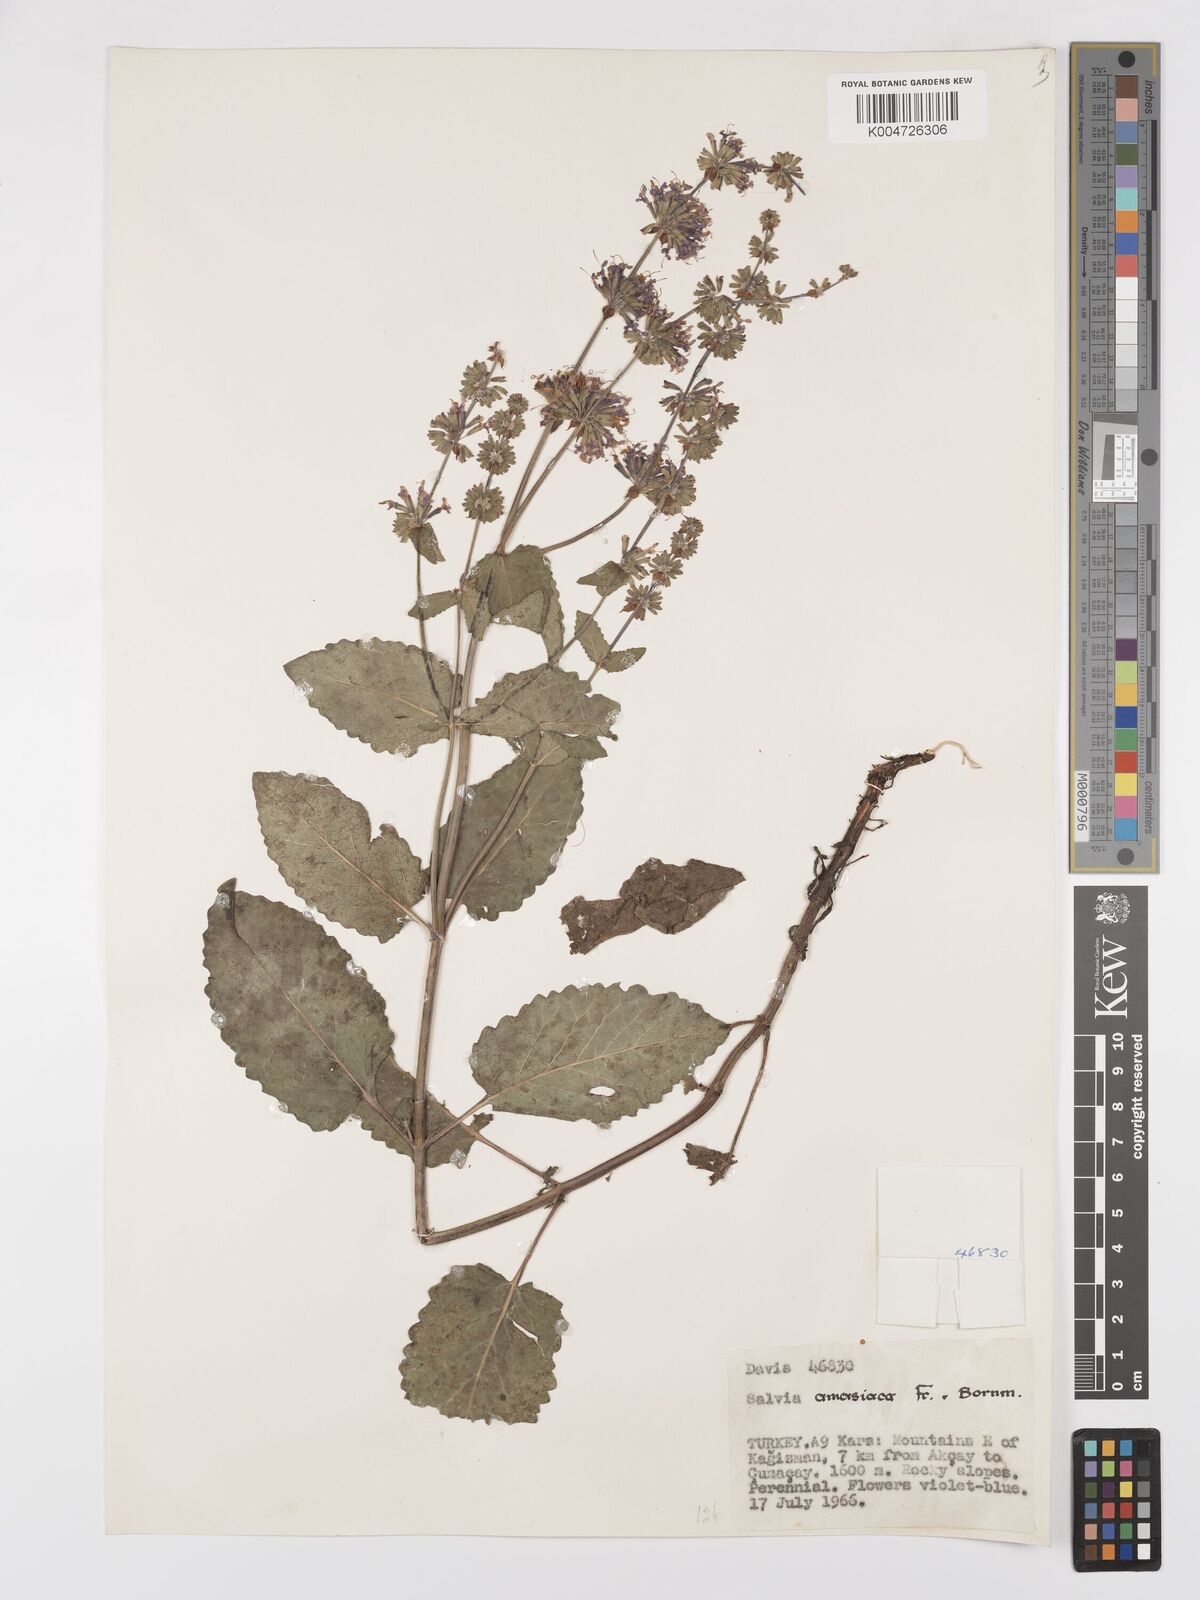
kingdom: Plantae
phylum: Tracheophyta
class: Magnoliopsida
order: Lamiales
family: Lamiaceae
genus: Salvia
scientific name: Salvia verticillata
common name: Whorled clary
